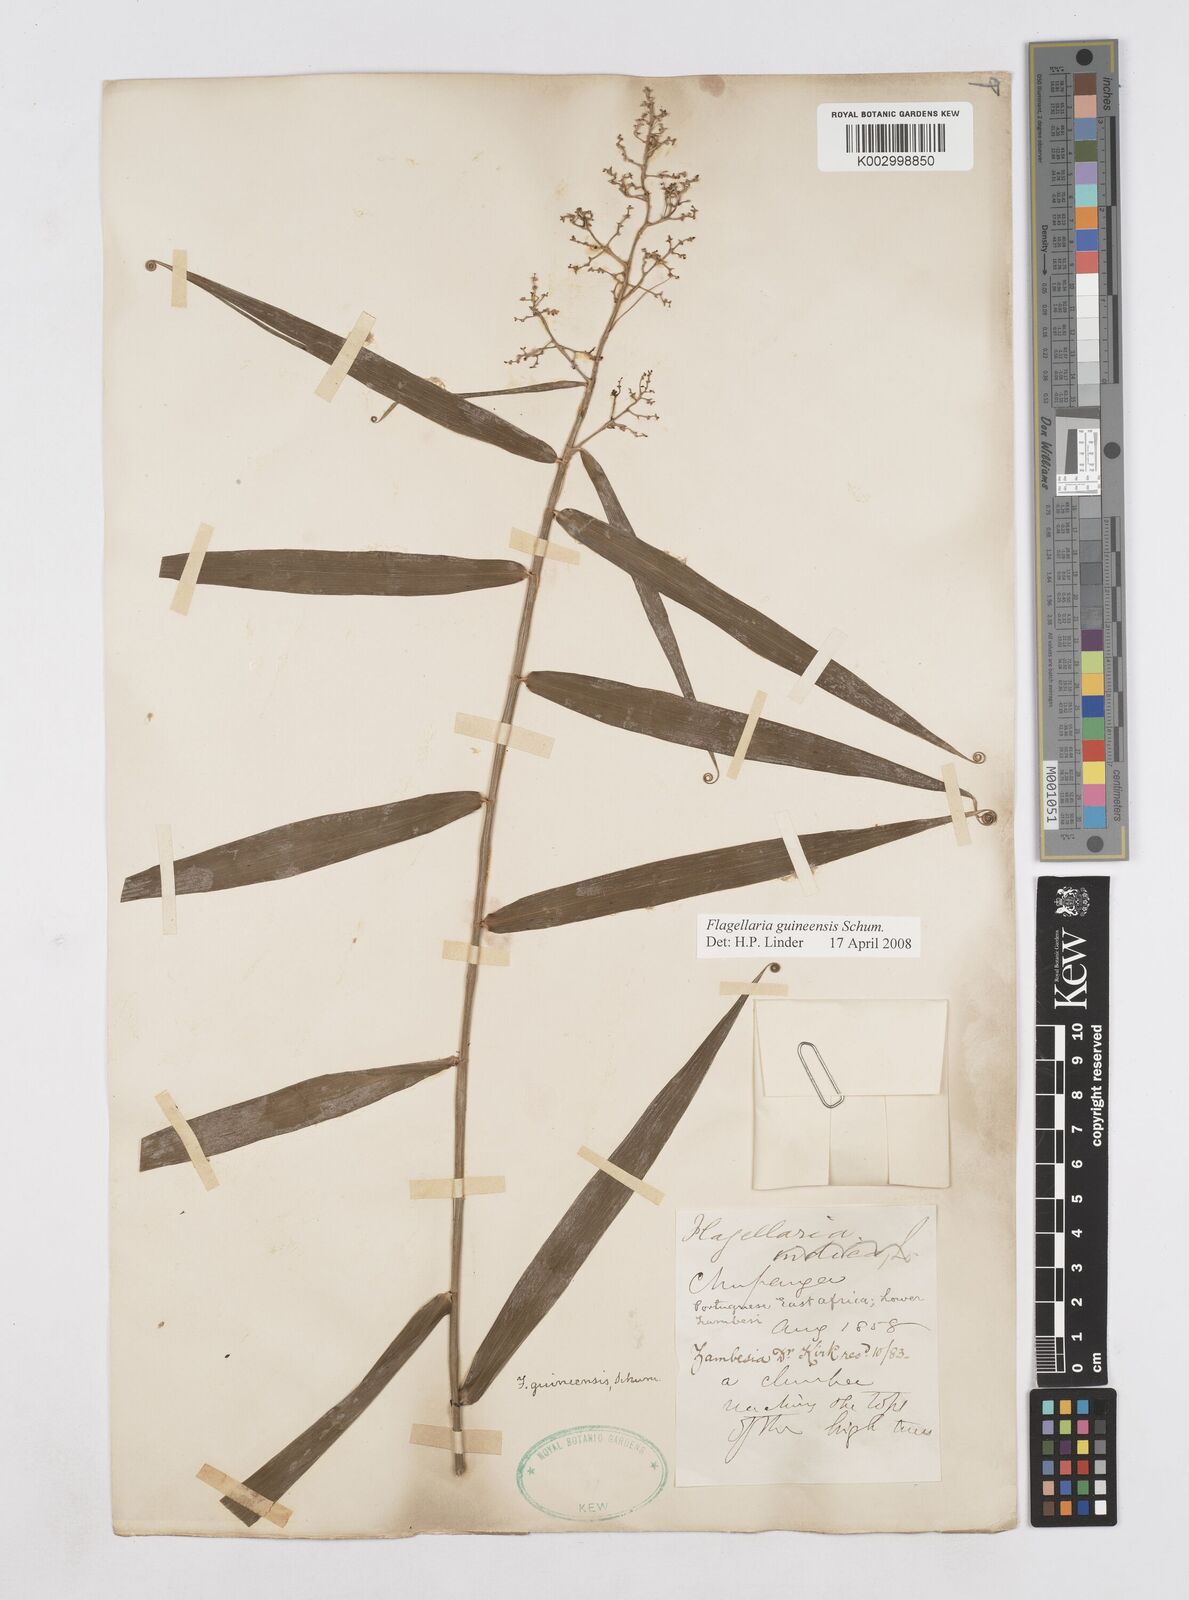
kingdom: Plantae
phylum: Tracheophyta
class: Liliopsida
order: Poales
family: Flagellariaceae
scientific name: Flagellariaceae
